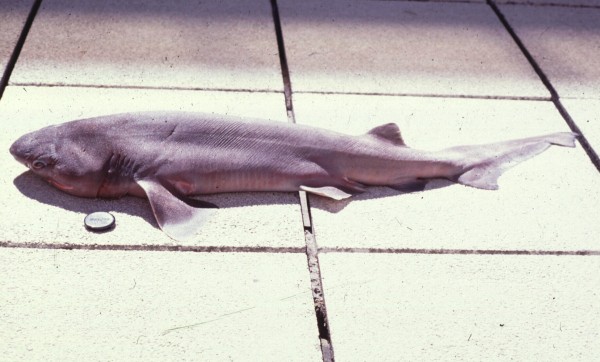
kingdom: Animalia
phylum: Chordata
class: Elasmobranchii
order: Hexanchiformes
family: Hexanchidae
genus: Hexanchus
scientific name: Hexanchus griseus
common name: Bluntnose sixgill shark
